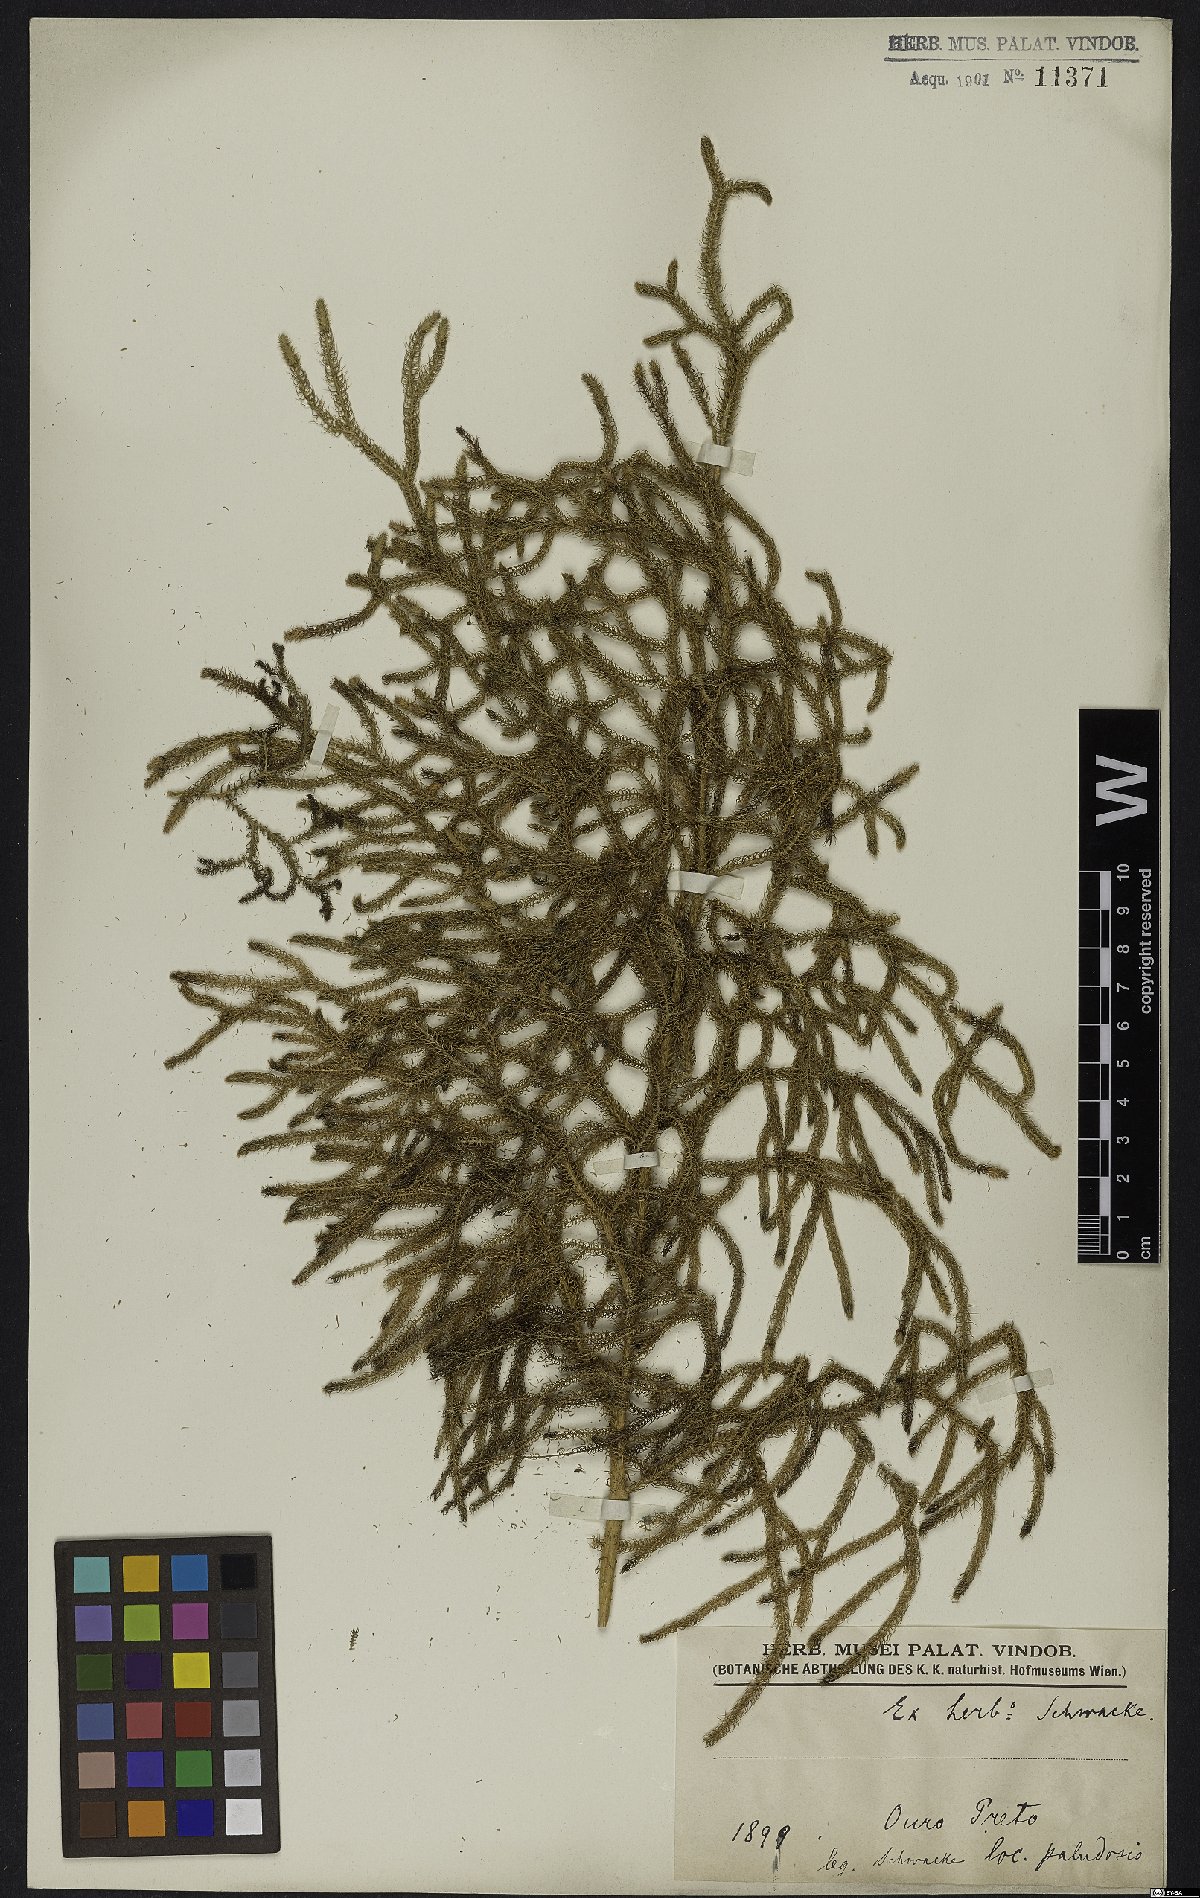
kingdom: Plantae
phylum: Tracheophyta
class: Lycopodiopsida
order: Lycopodiales
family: Lycopodiaceae
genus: Palhinhaea
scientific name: Palhinhaea cernua
